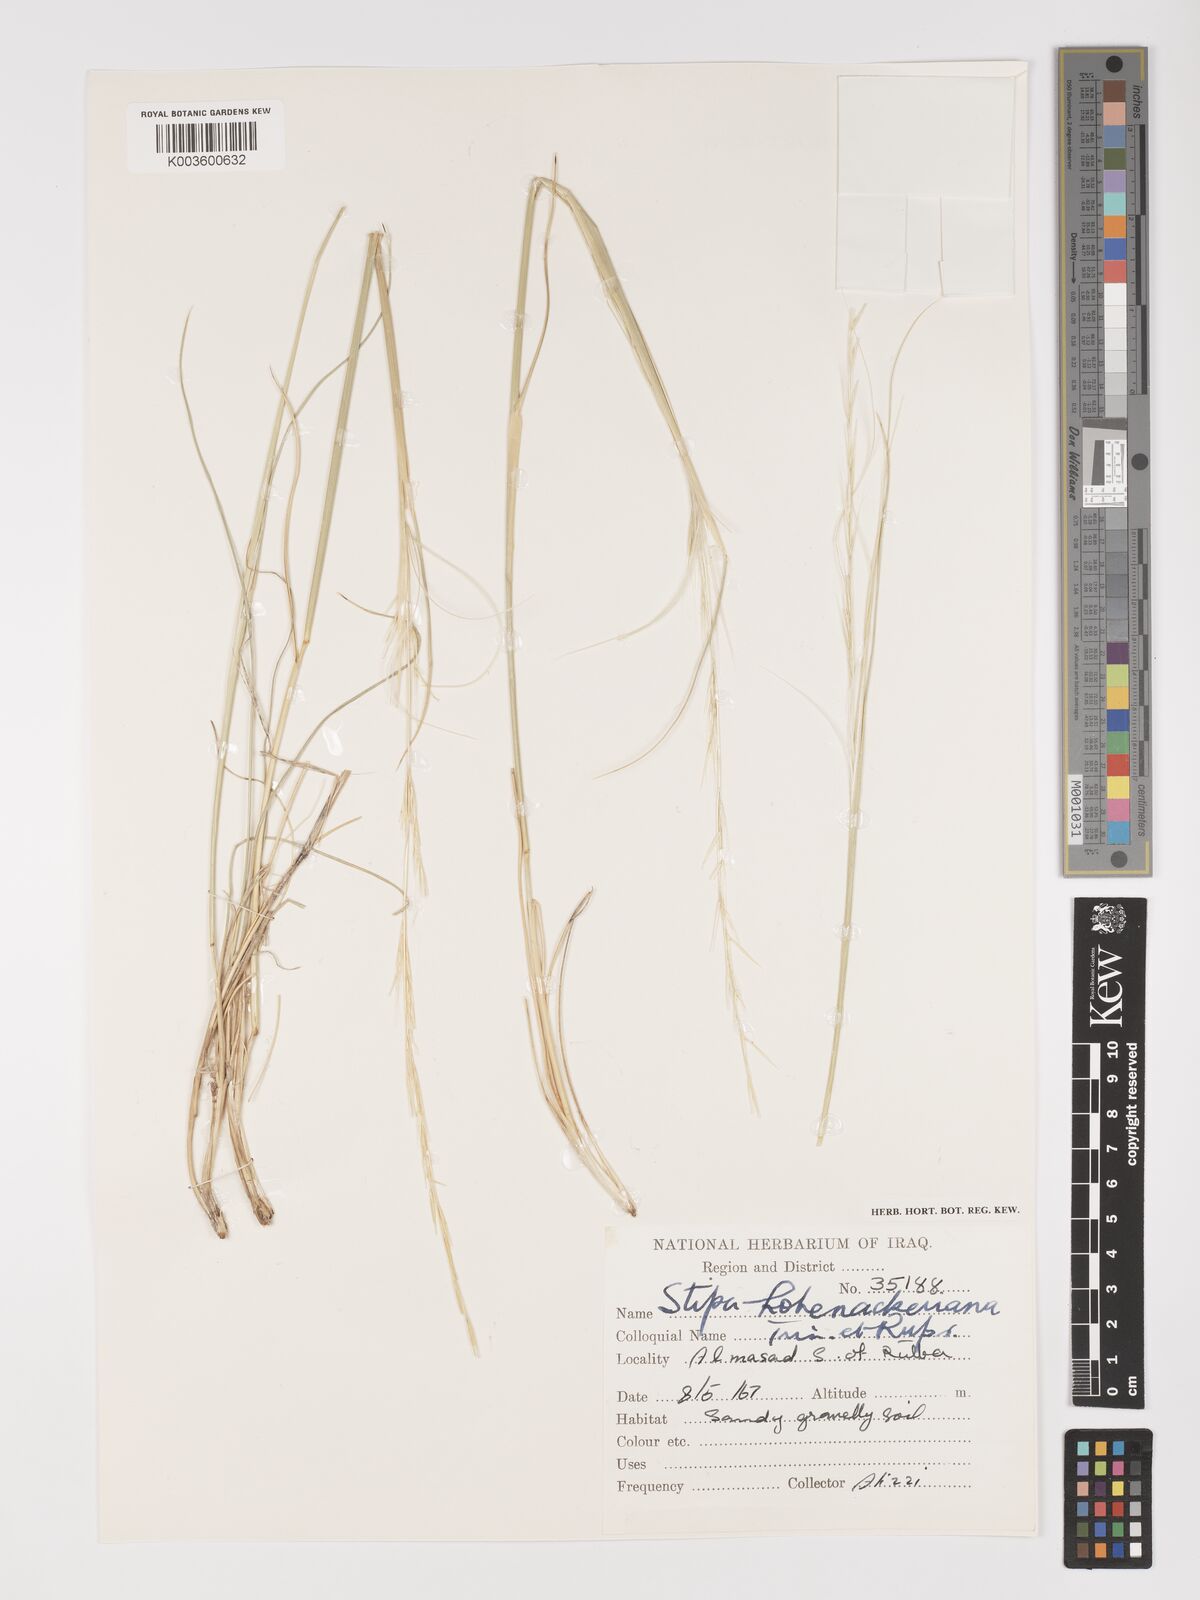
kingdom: Plantae
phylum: Tracheophyta
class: Liliopsida
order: Poales
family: Poaceae
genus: Stipa
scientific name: Stipa hohenackeriana
